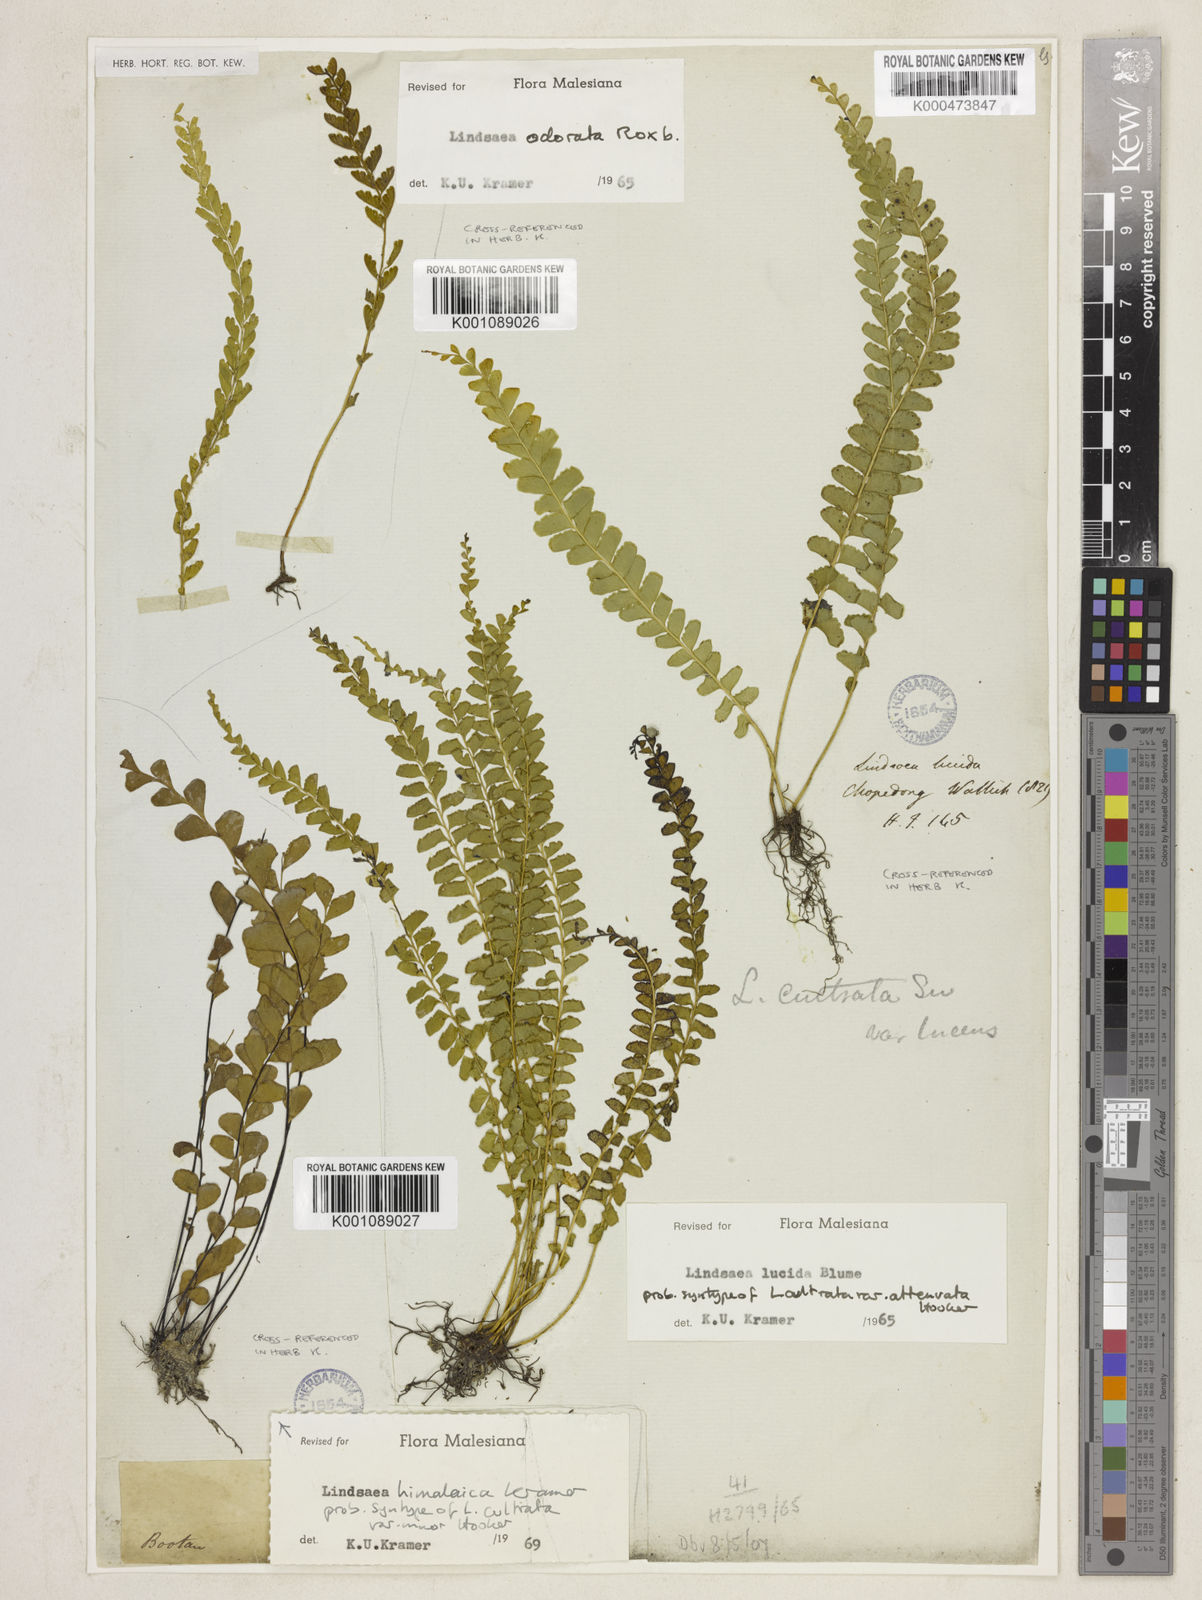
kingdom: Plantae
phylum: Tracheophyta
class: Polypodiopsida
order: Polypodiales
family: Lindsaeaceae
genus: Lindsaea
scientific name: Lindsaea lucida
